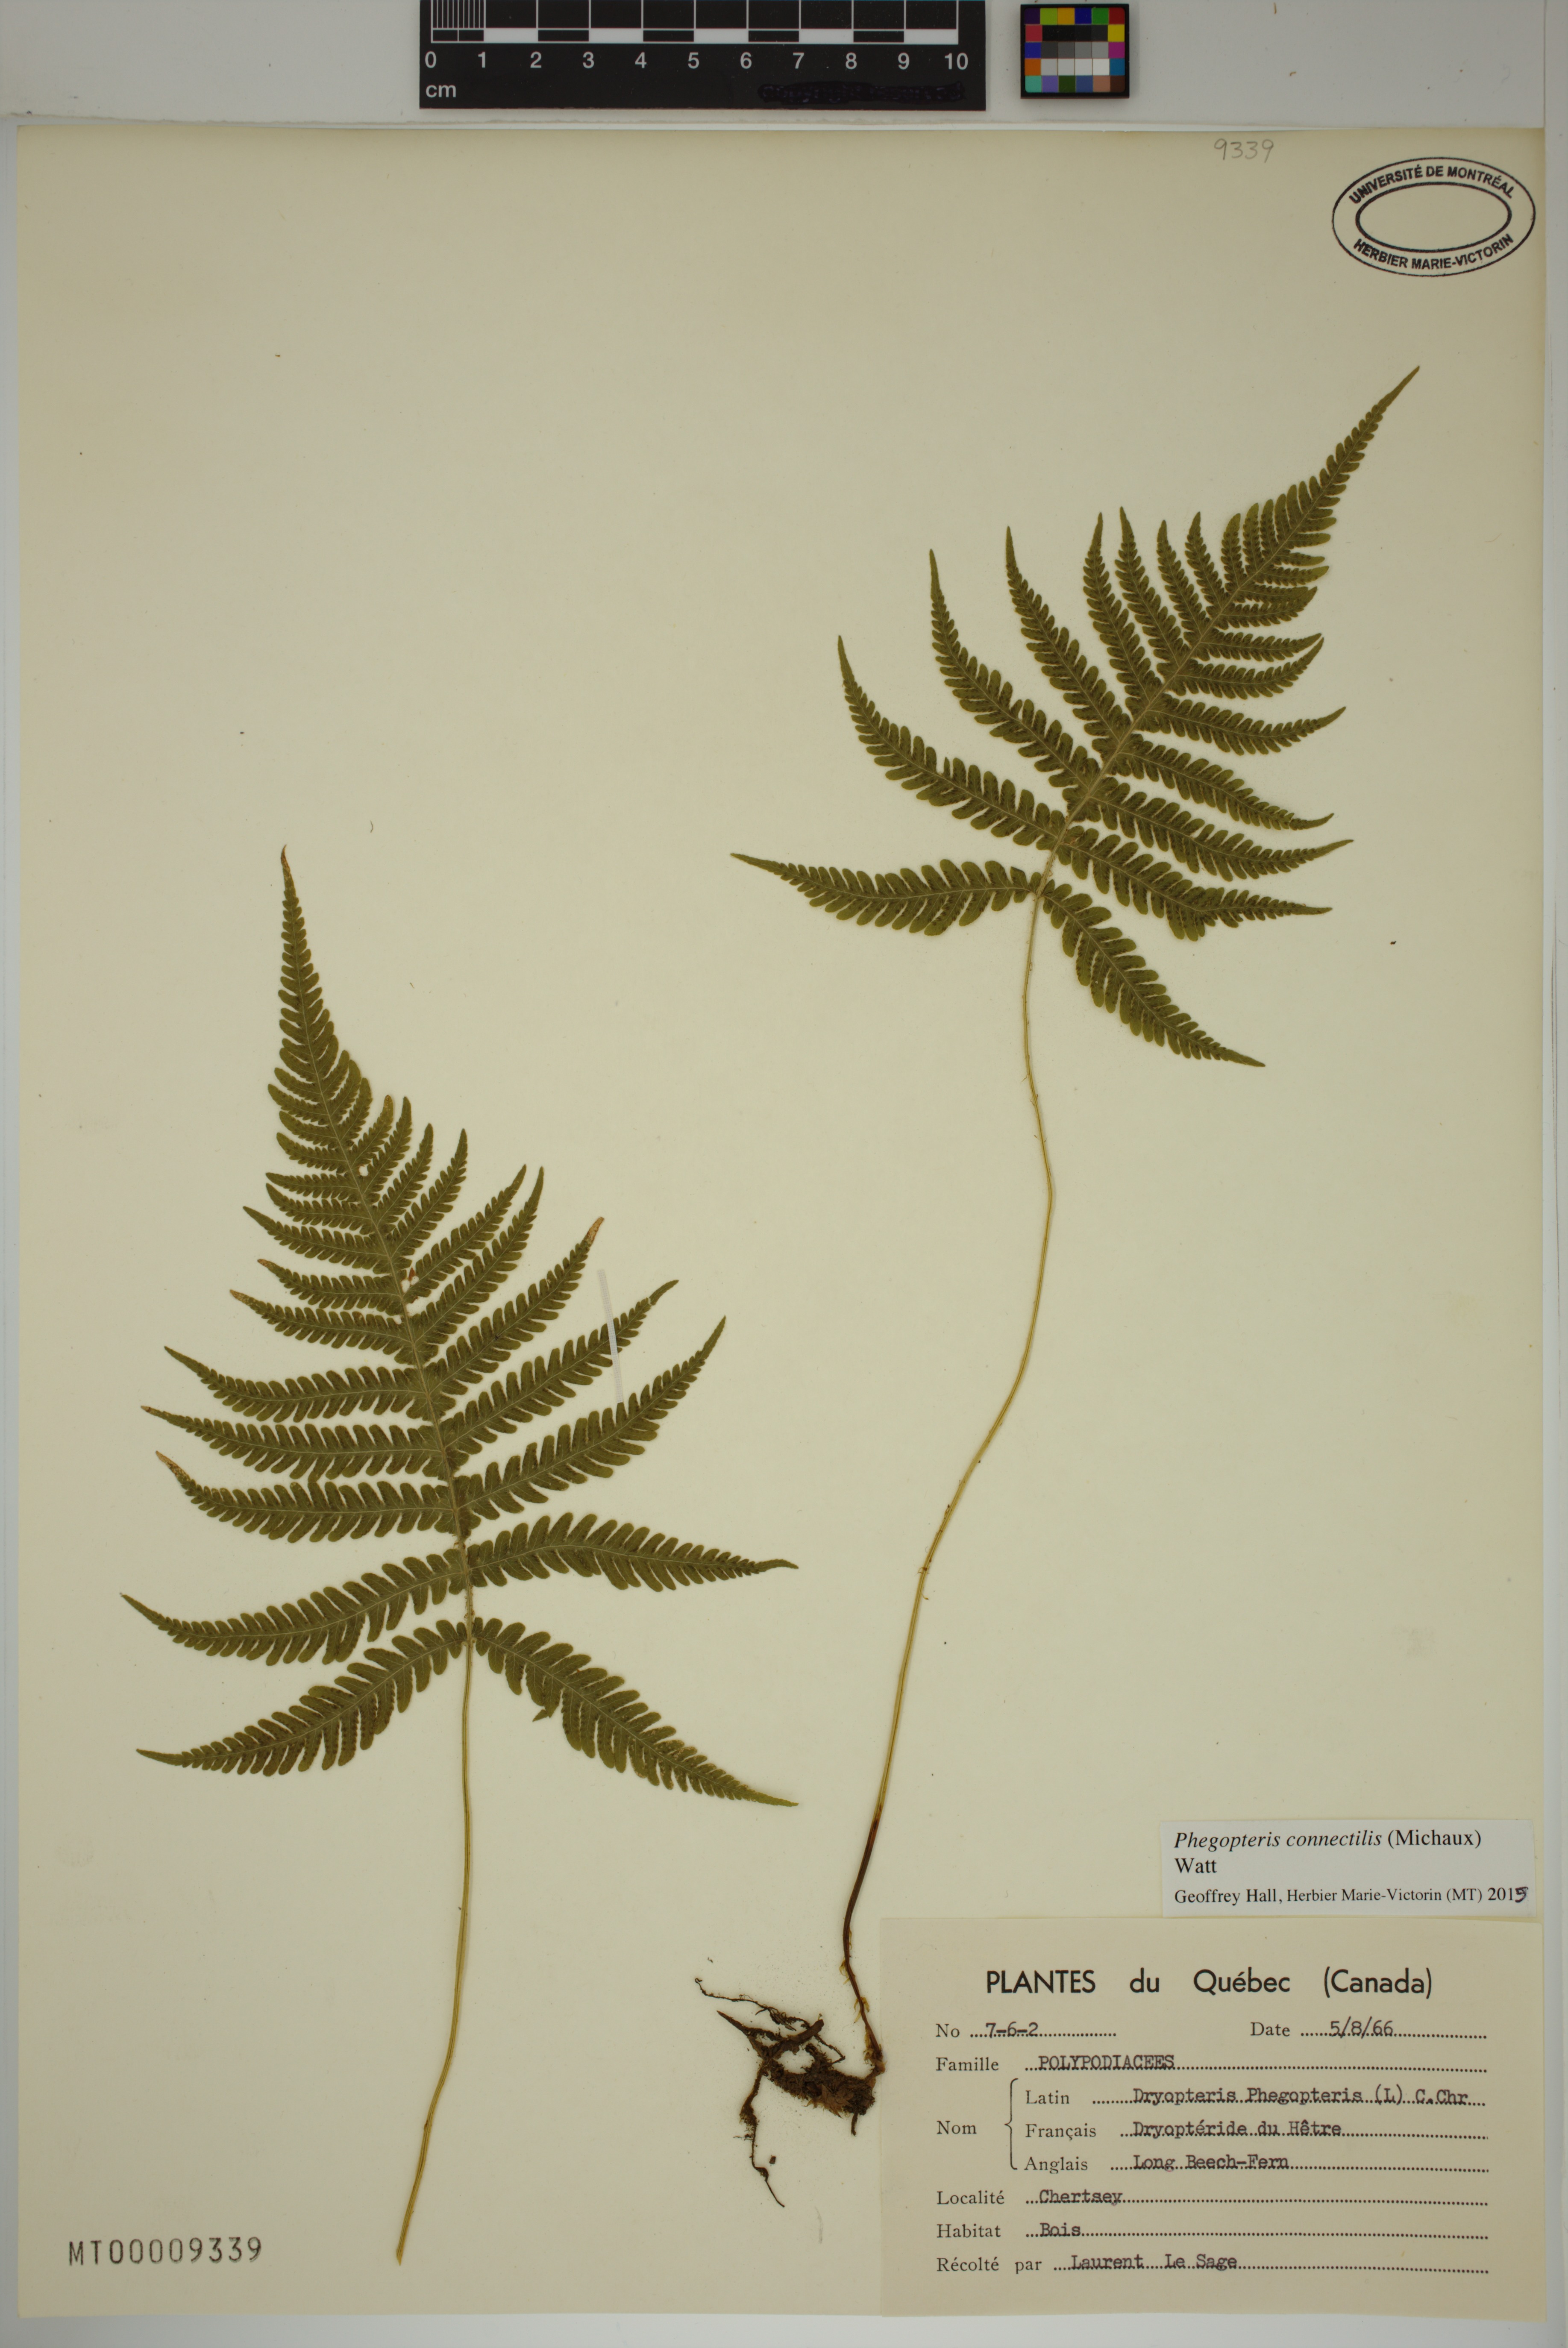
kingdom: Plantae
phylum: Tracheophyta
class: Polypodiopsida
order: Polypodiales
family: Thelypteridaceae
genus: Phegopteris
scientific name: Phegopteris connectilis
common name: Beech fern
